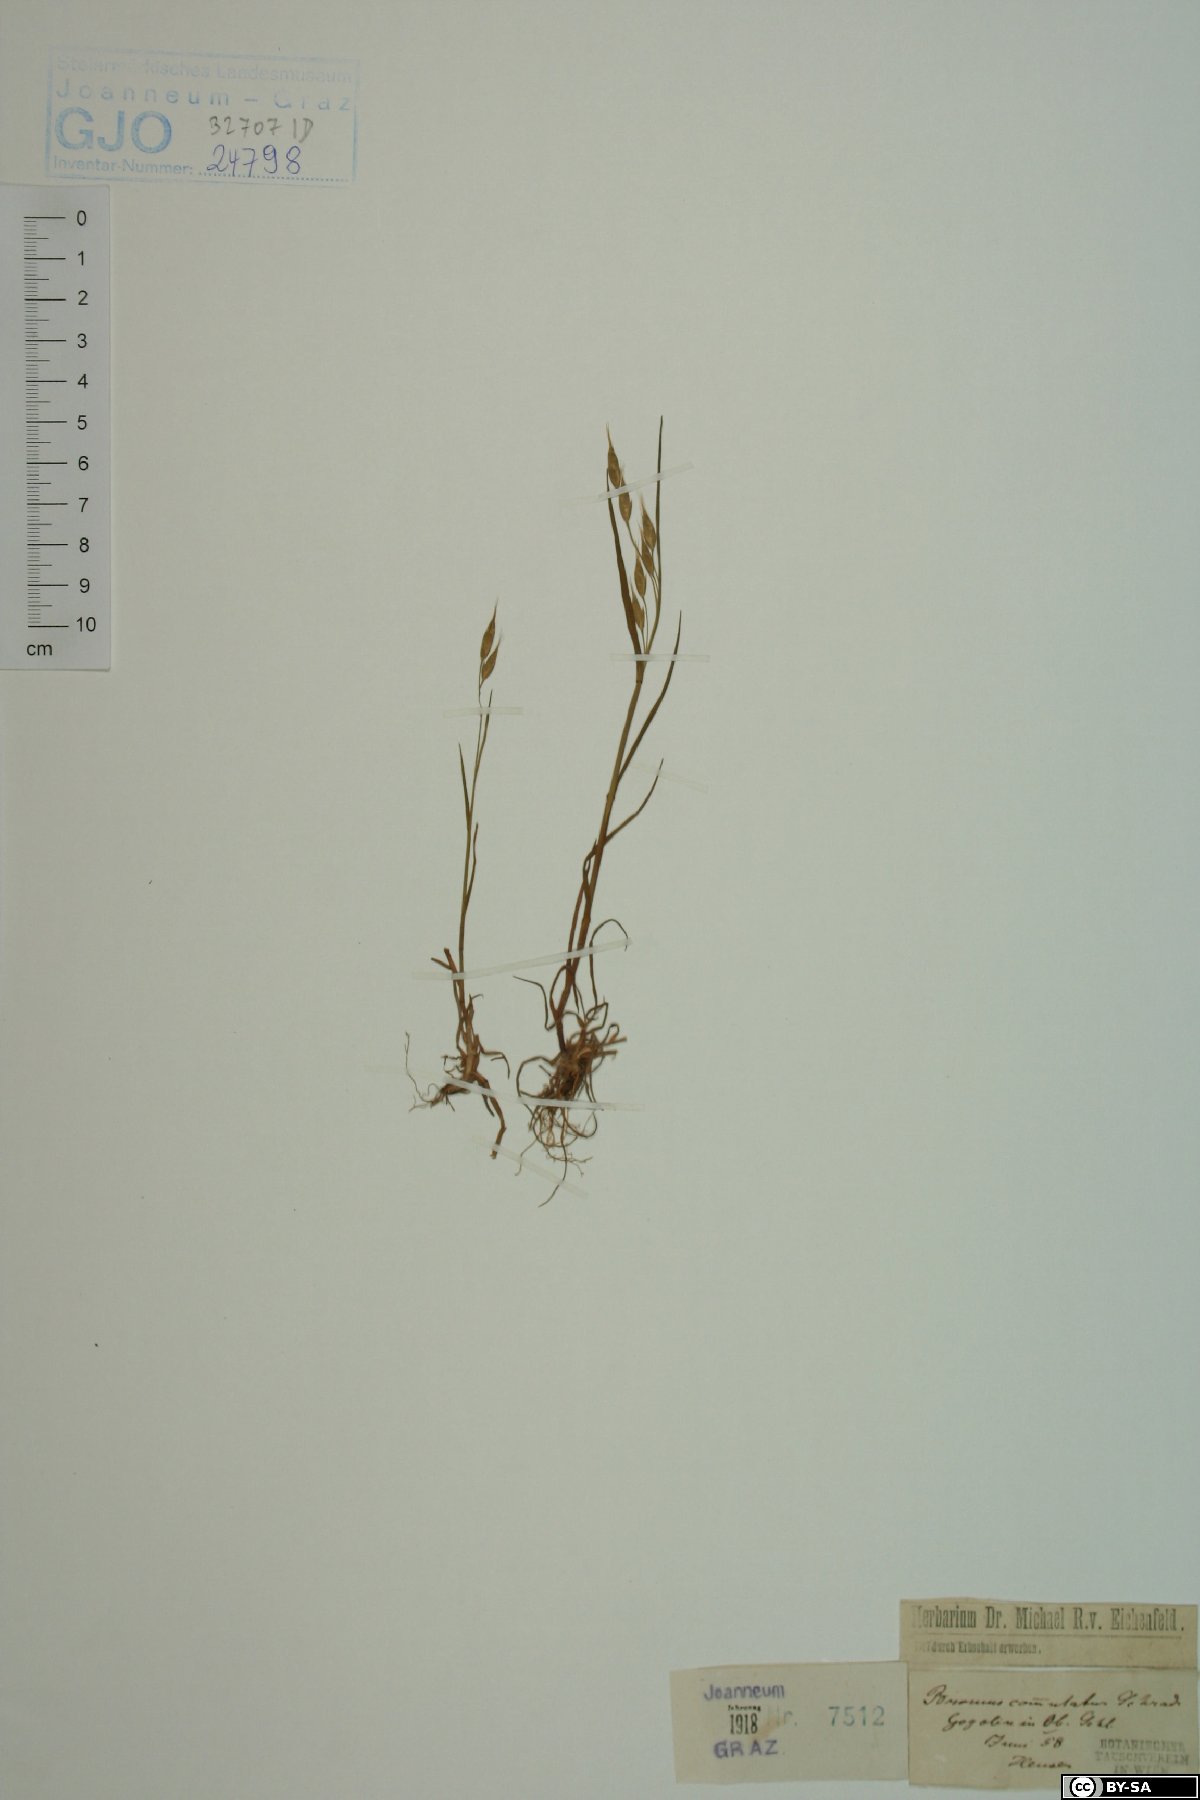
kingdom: Plantae
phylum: Tracheophyta
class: Liliopsida
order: Poales
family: Poaceae
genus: Bromus
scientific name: Bromus commutatus
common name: Meadow brome
